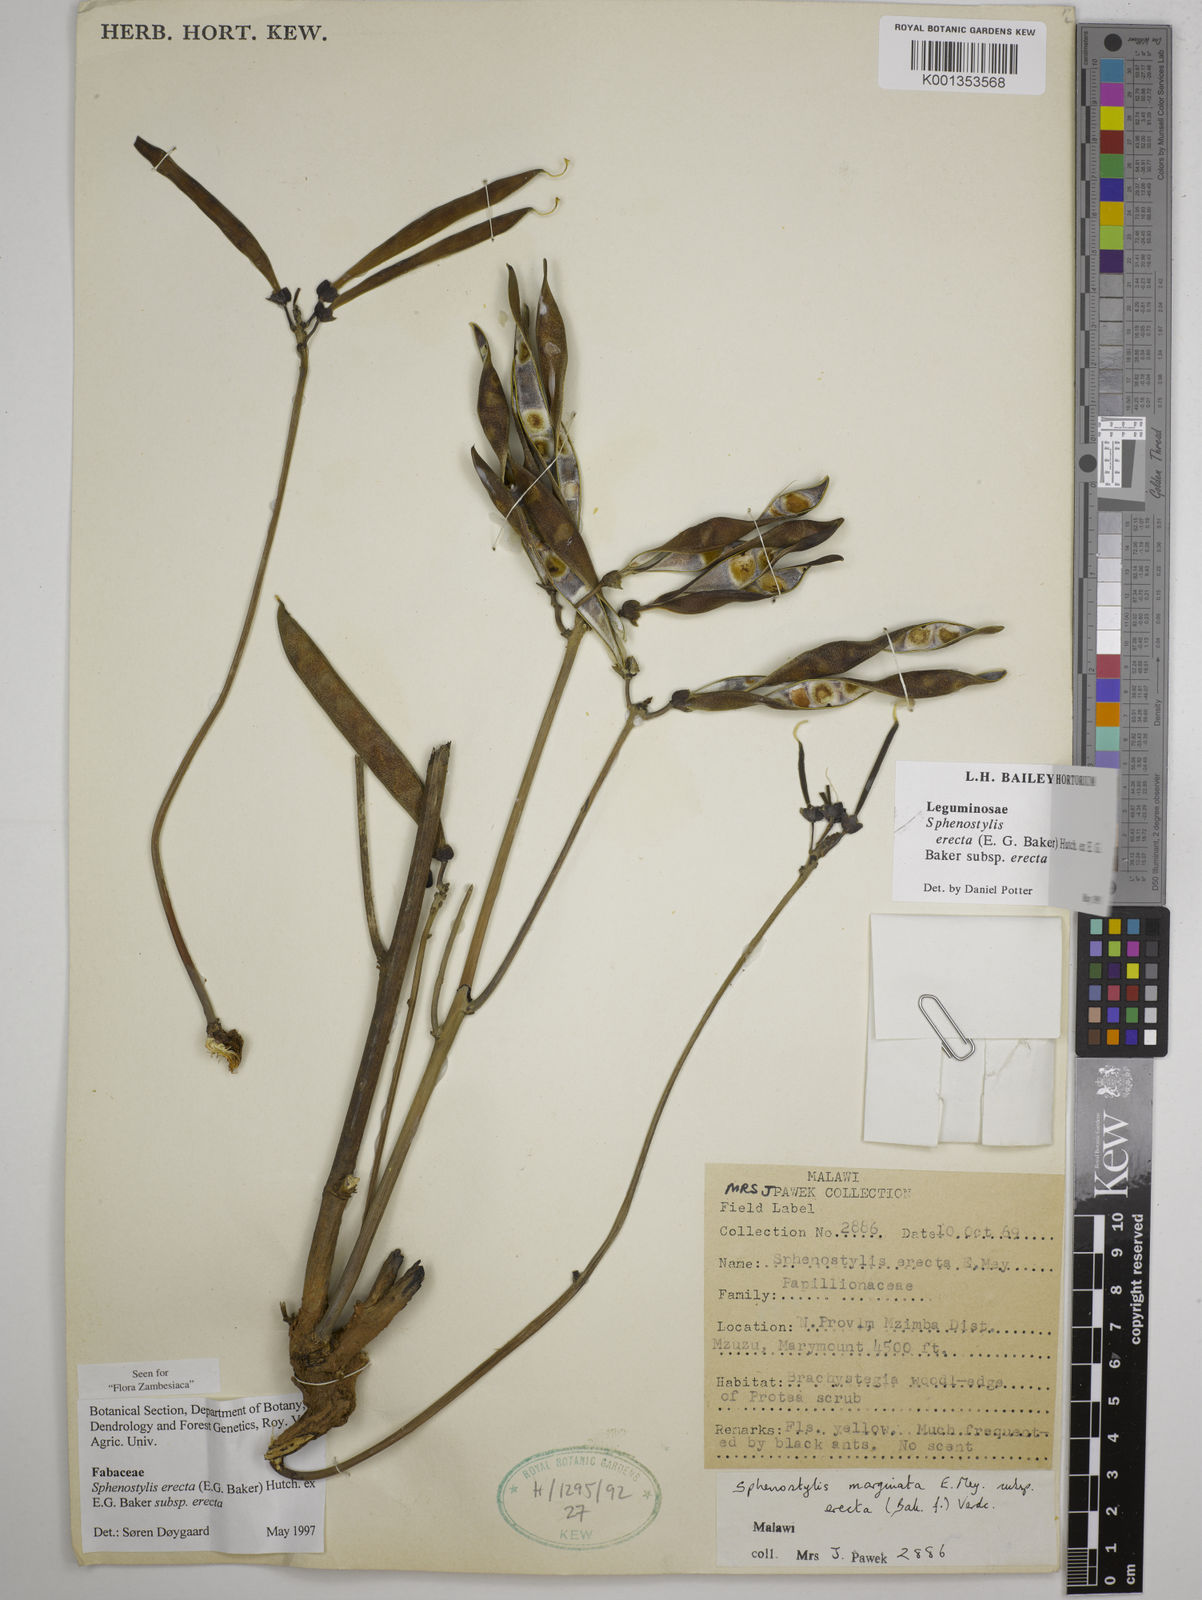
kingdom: Plantae
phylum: Tracheophyta
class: Magnoliopsida
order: Fabales
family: Fabaceae
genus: Sphenostylis
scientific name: Sphenostylis erecta
